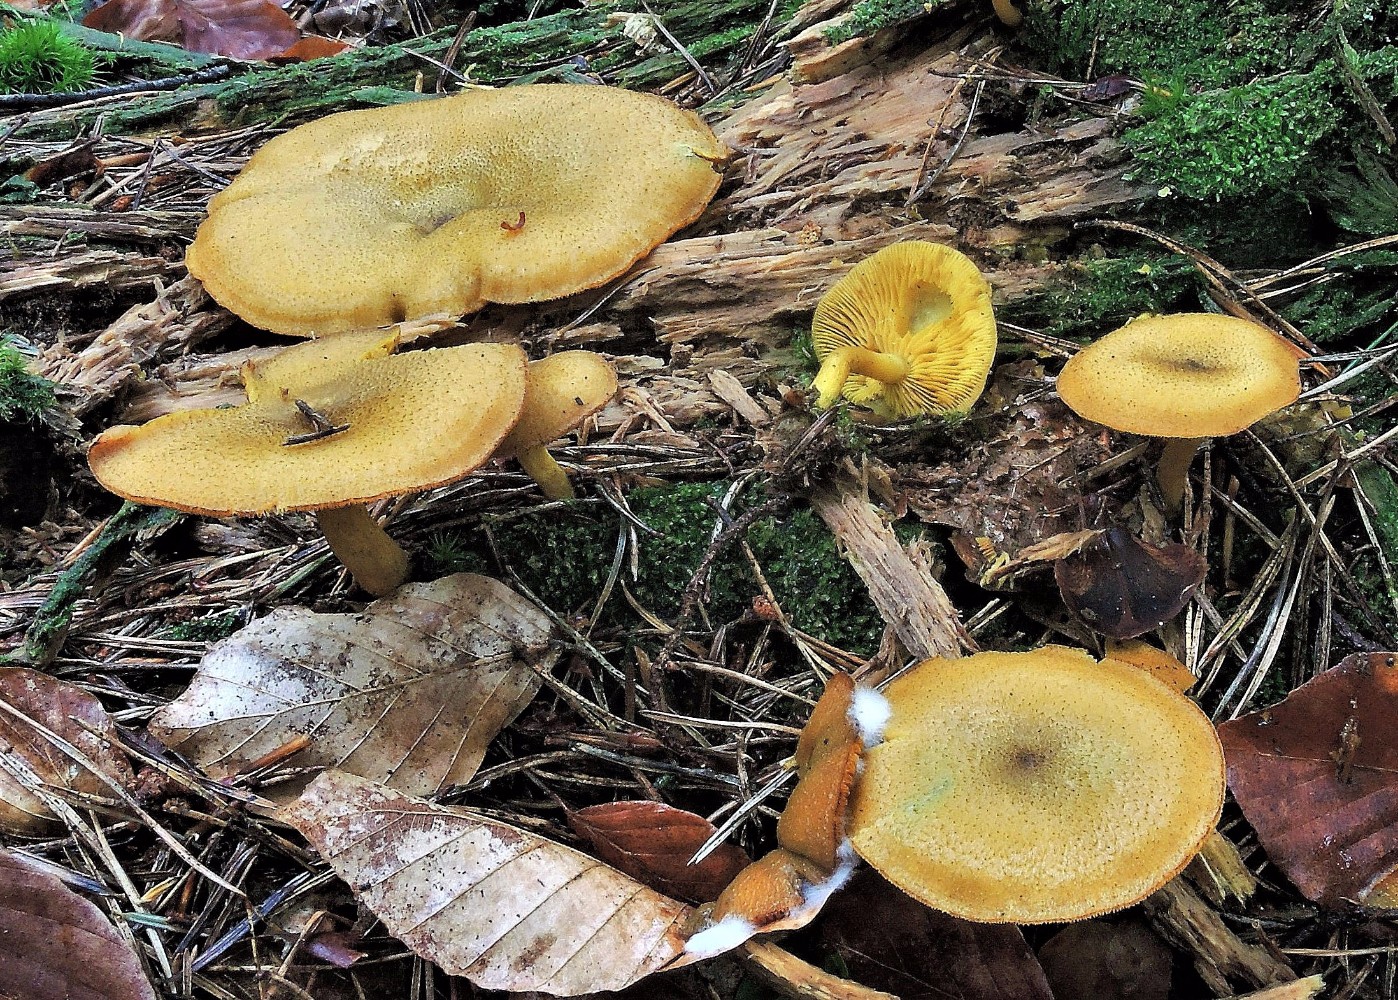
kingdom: Fungi
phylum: Basidiomycota
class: Agaricomycetes
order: Agaricales
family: Tricholomataceae
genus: Tricholomopsis
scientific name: Tricholomopsis decora
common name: sortskællet væbnerhat
